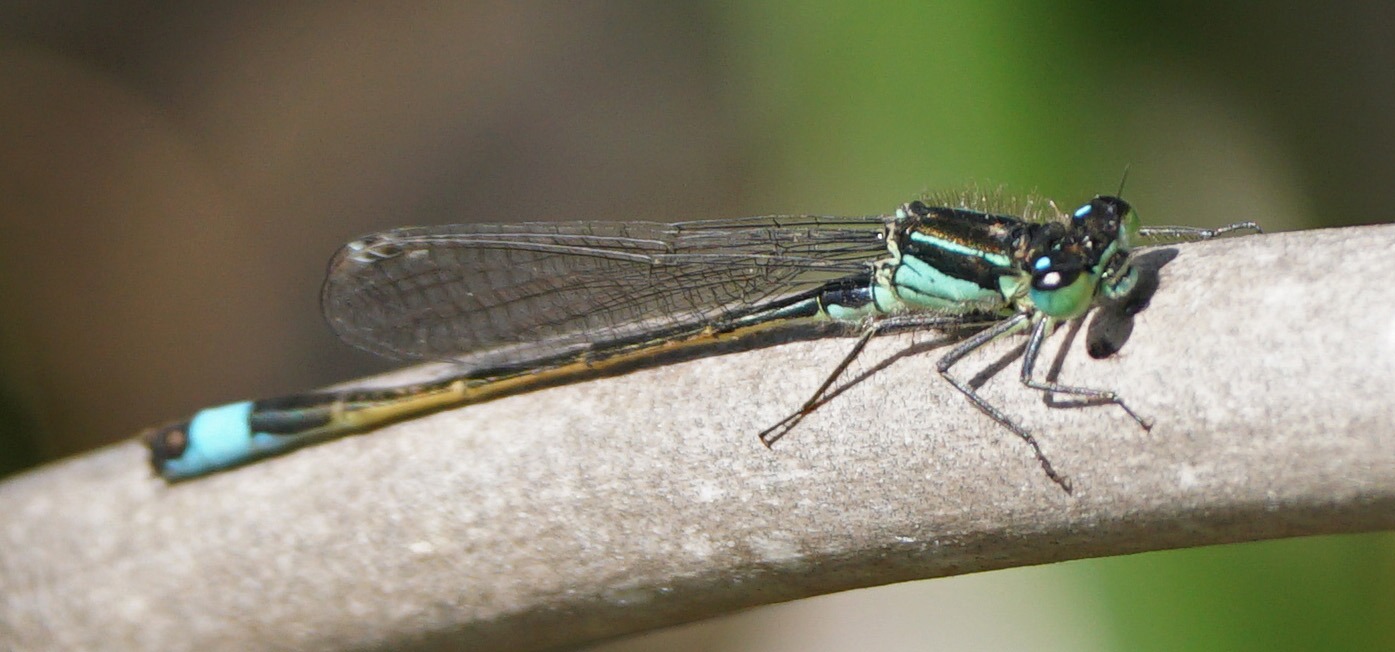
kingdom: Animalia
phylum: Arthropoda
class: Insecta
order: Odonata
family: Coenagrionidae
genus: Ischnura
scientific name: Ischnura elegans
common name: Stor farvevandnymfe
